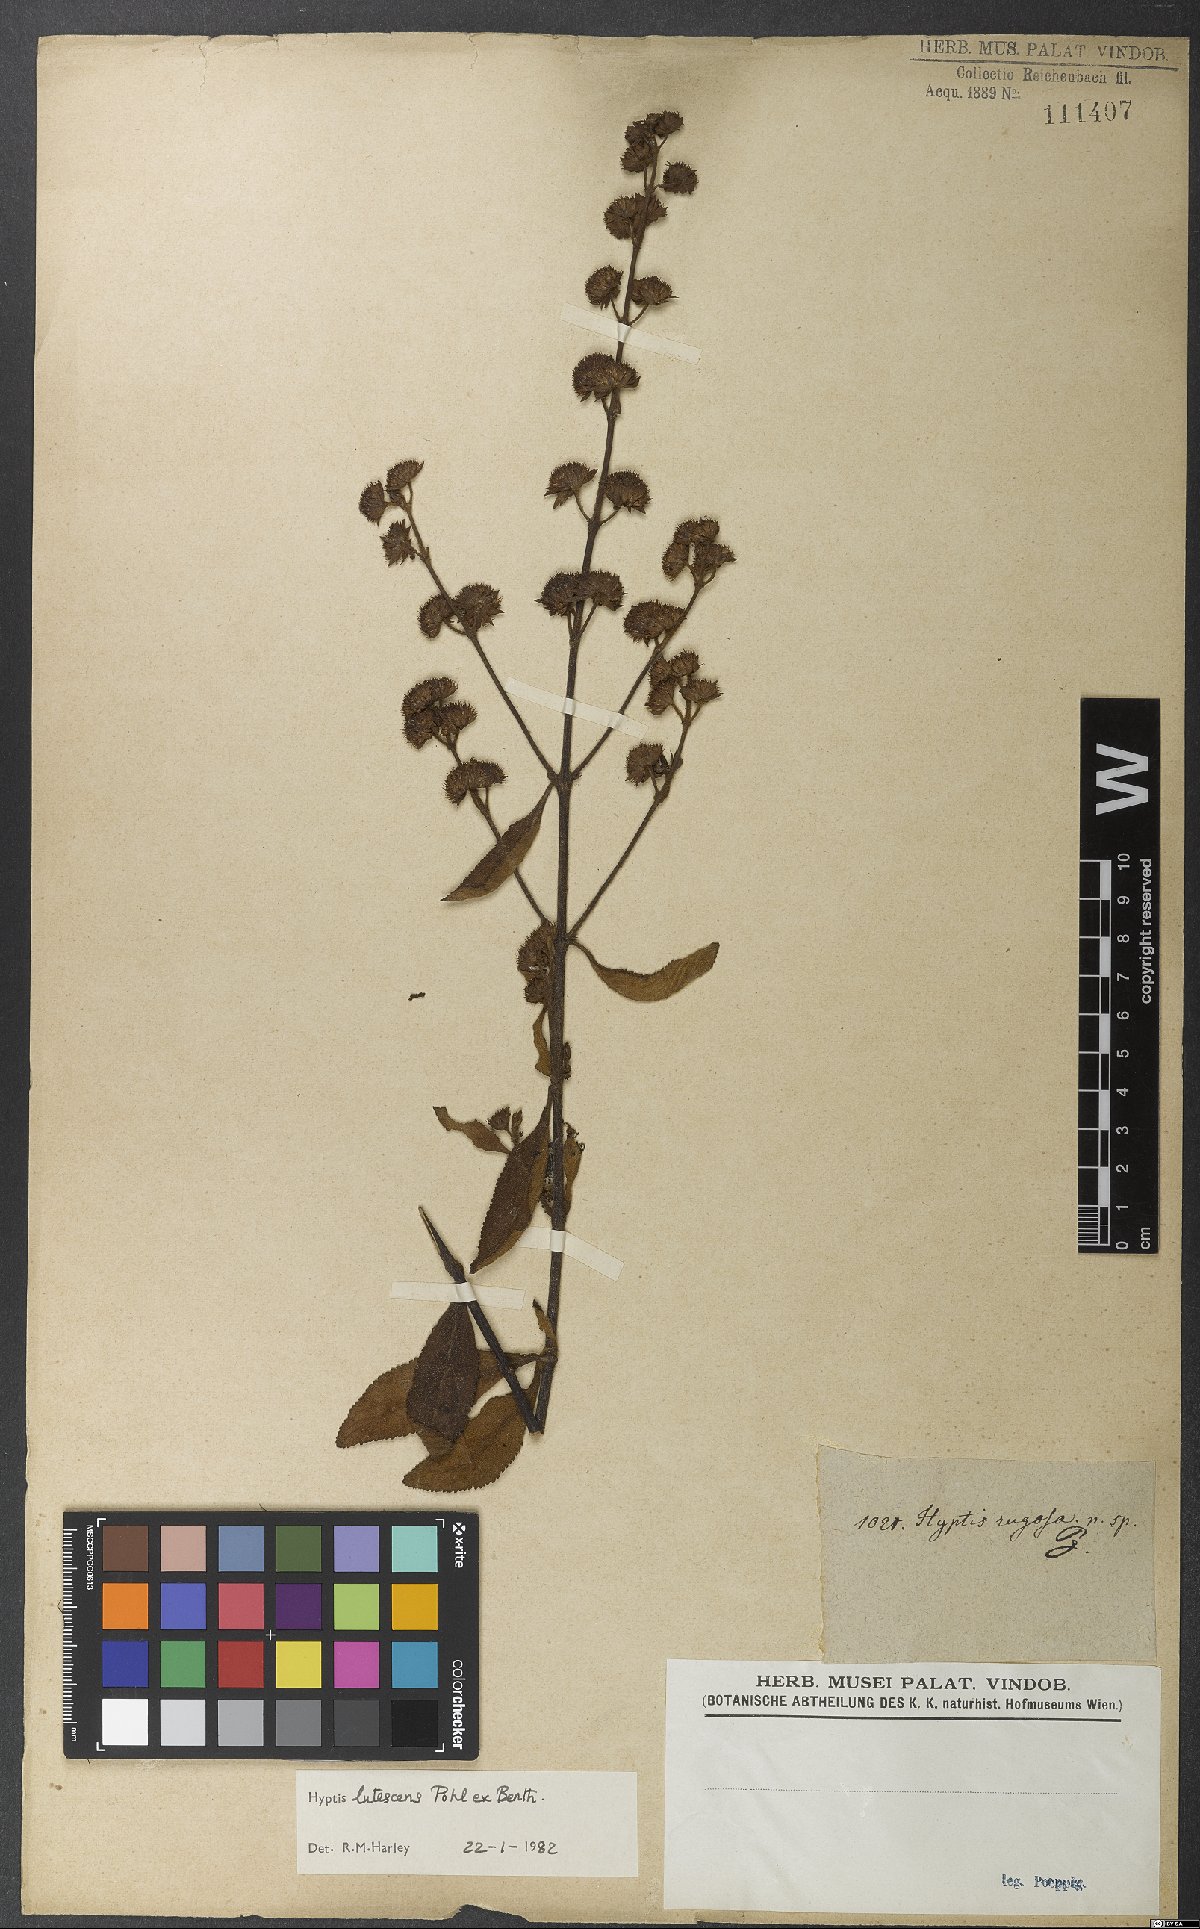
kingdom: Plantae
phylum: Tracheophyta
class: Magnoliopsida
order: Lamiales
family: Lamiaceae
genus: Hyptis
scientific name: Hyptis lutescens
